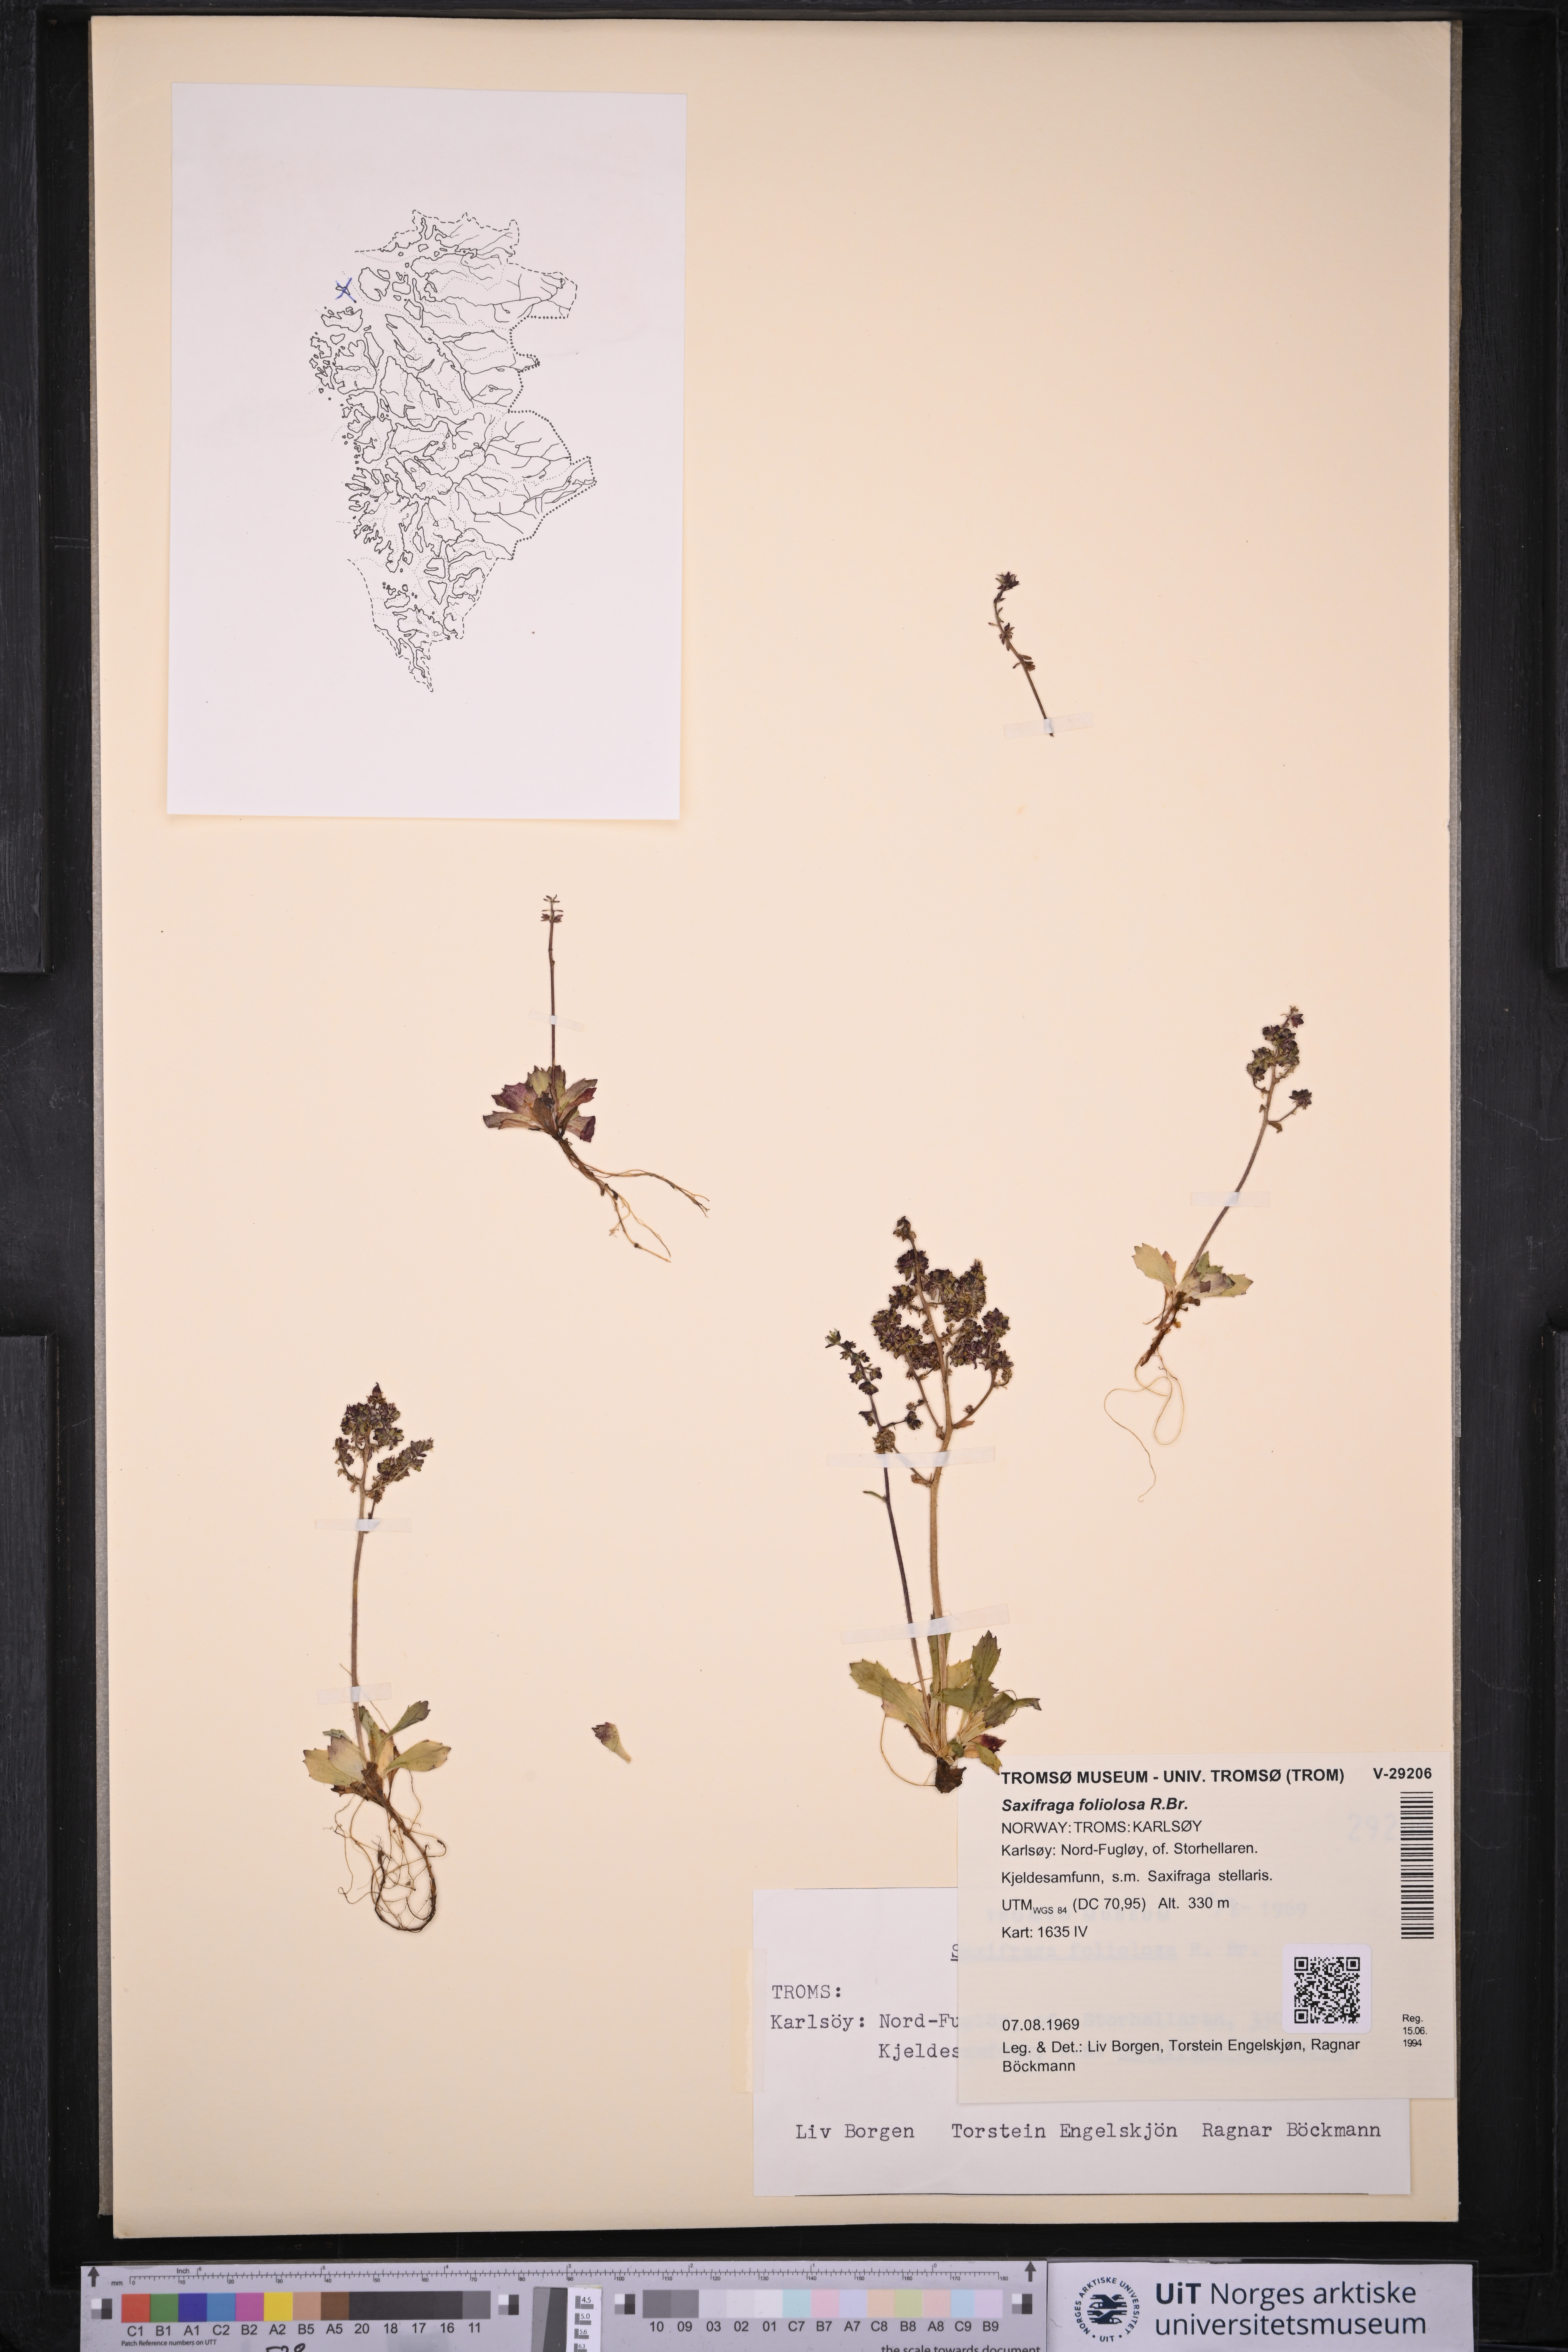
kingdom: Plantae
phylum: Tracheophyta
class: Magnoliopsida
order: Saxifragales
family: Saxifragaceae
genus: Micranthes
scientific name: Micranthes foliolosa
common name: Leafystem saxifrage
